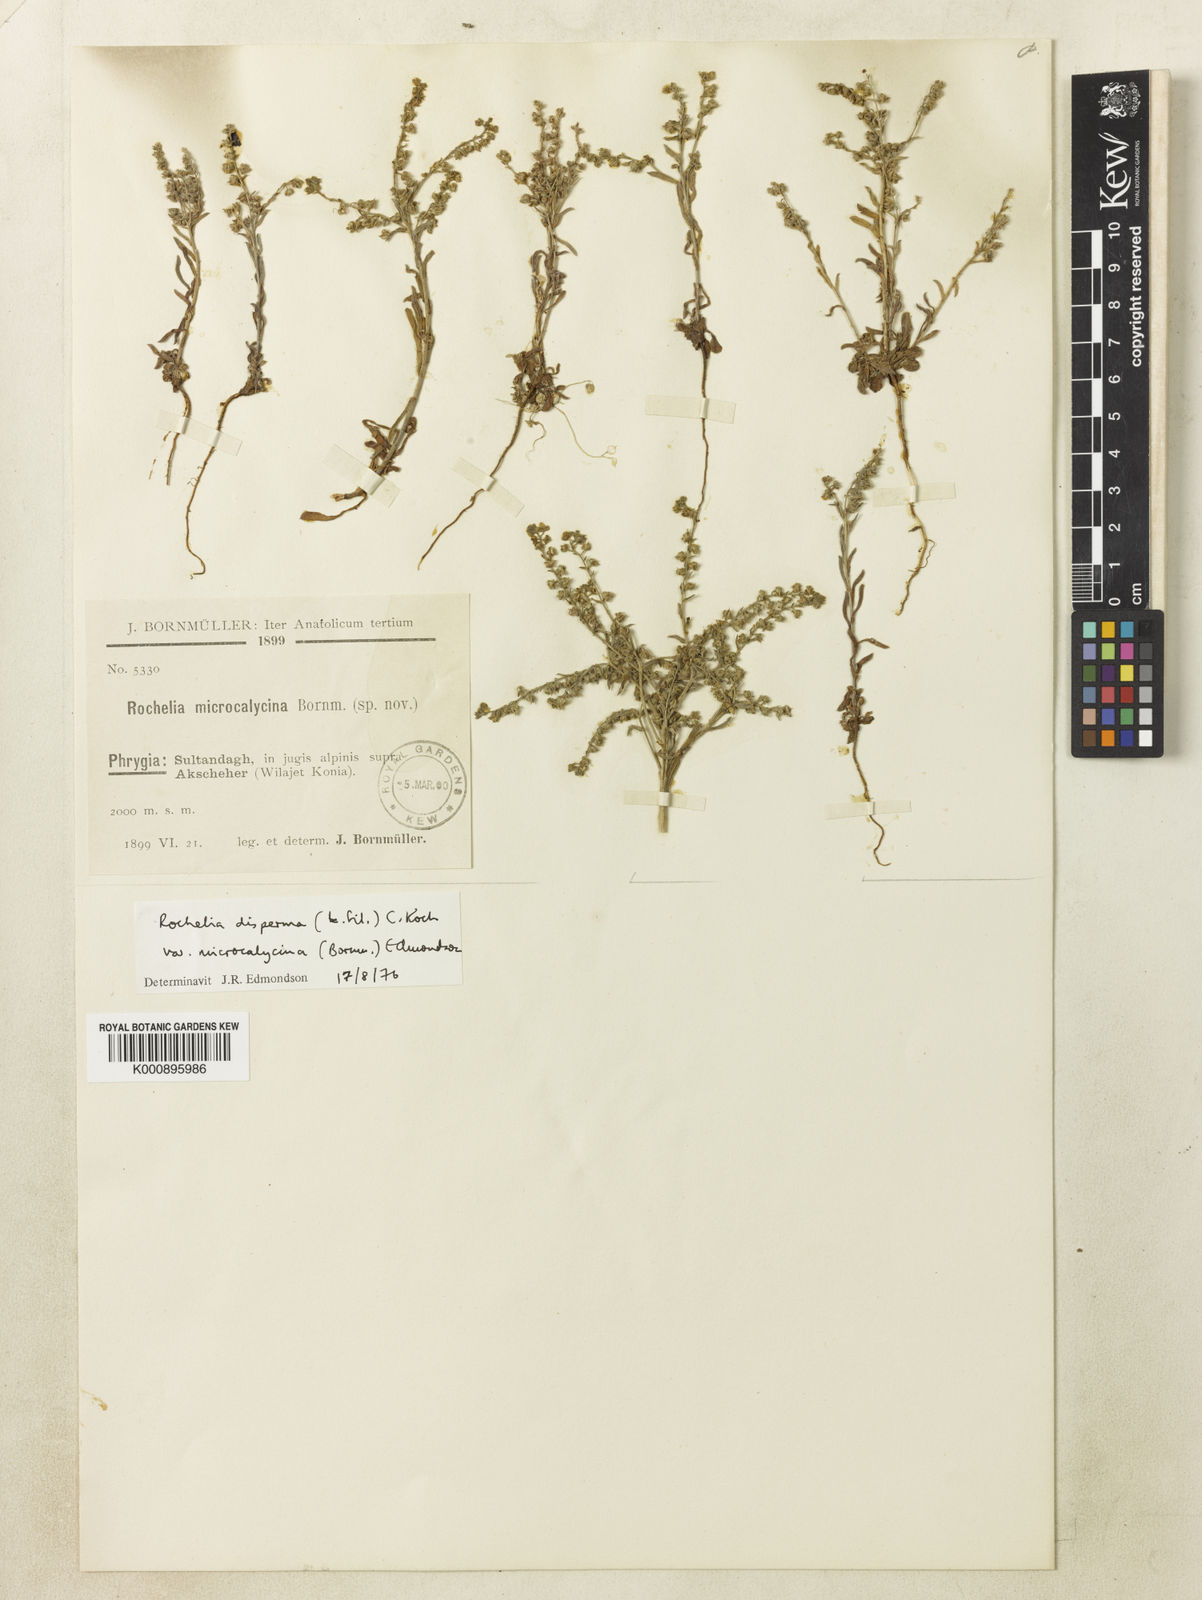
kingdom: Plantae
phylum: Tracheophyta
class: Magnoliopsida
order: Boraginales
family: Boraginaceae
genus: Rochelia
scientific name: Rochelia disperma
